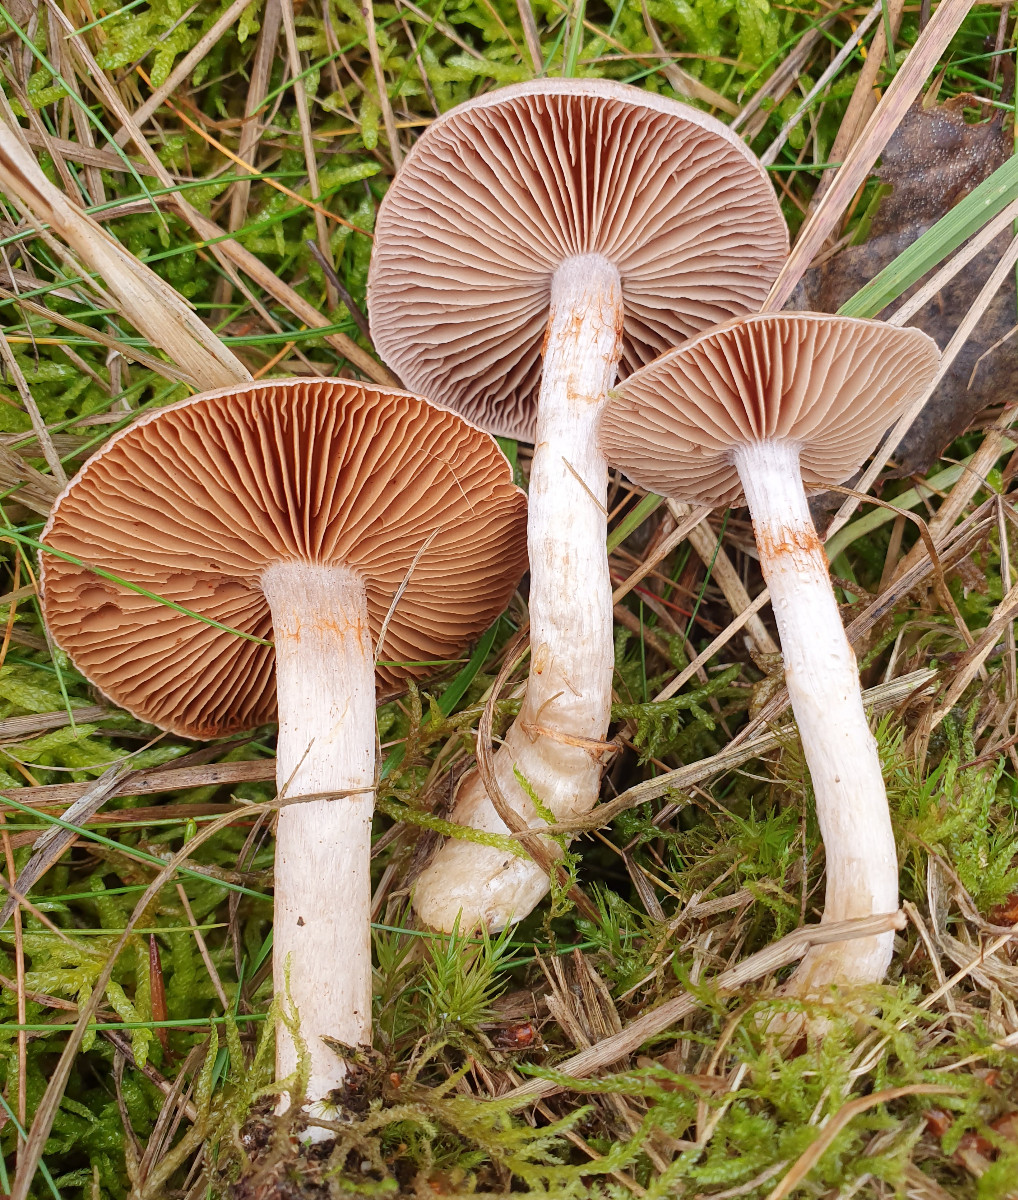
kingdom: Fungi
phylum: Basidiomycota
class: Agaricomycetes
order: Agaricales
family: Cortinariaceae
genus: Cortinarius
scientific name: Cortinarius caninus
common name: gran-slørhat
